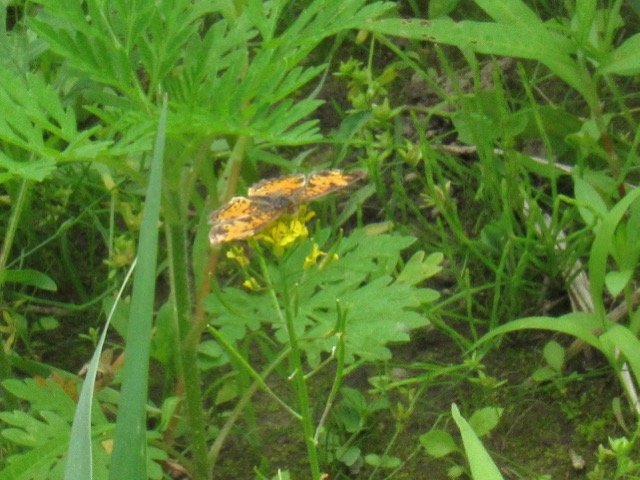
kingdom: Animalia
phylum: Arthropoda
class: Insecta
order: Lepidoptera
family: Nymphalidae
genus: Phyciodes
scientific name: Phyciodes tharos
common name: Pearl Crescent
